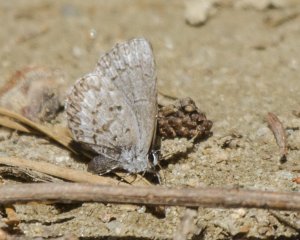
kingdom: Animalia
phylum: Arthropoda
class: Insecta
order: Lepidoptera
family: Lycaenidae
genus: Celastrina
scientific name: Celastrina lucia
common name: Northern Spring Azure
